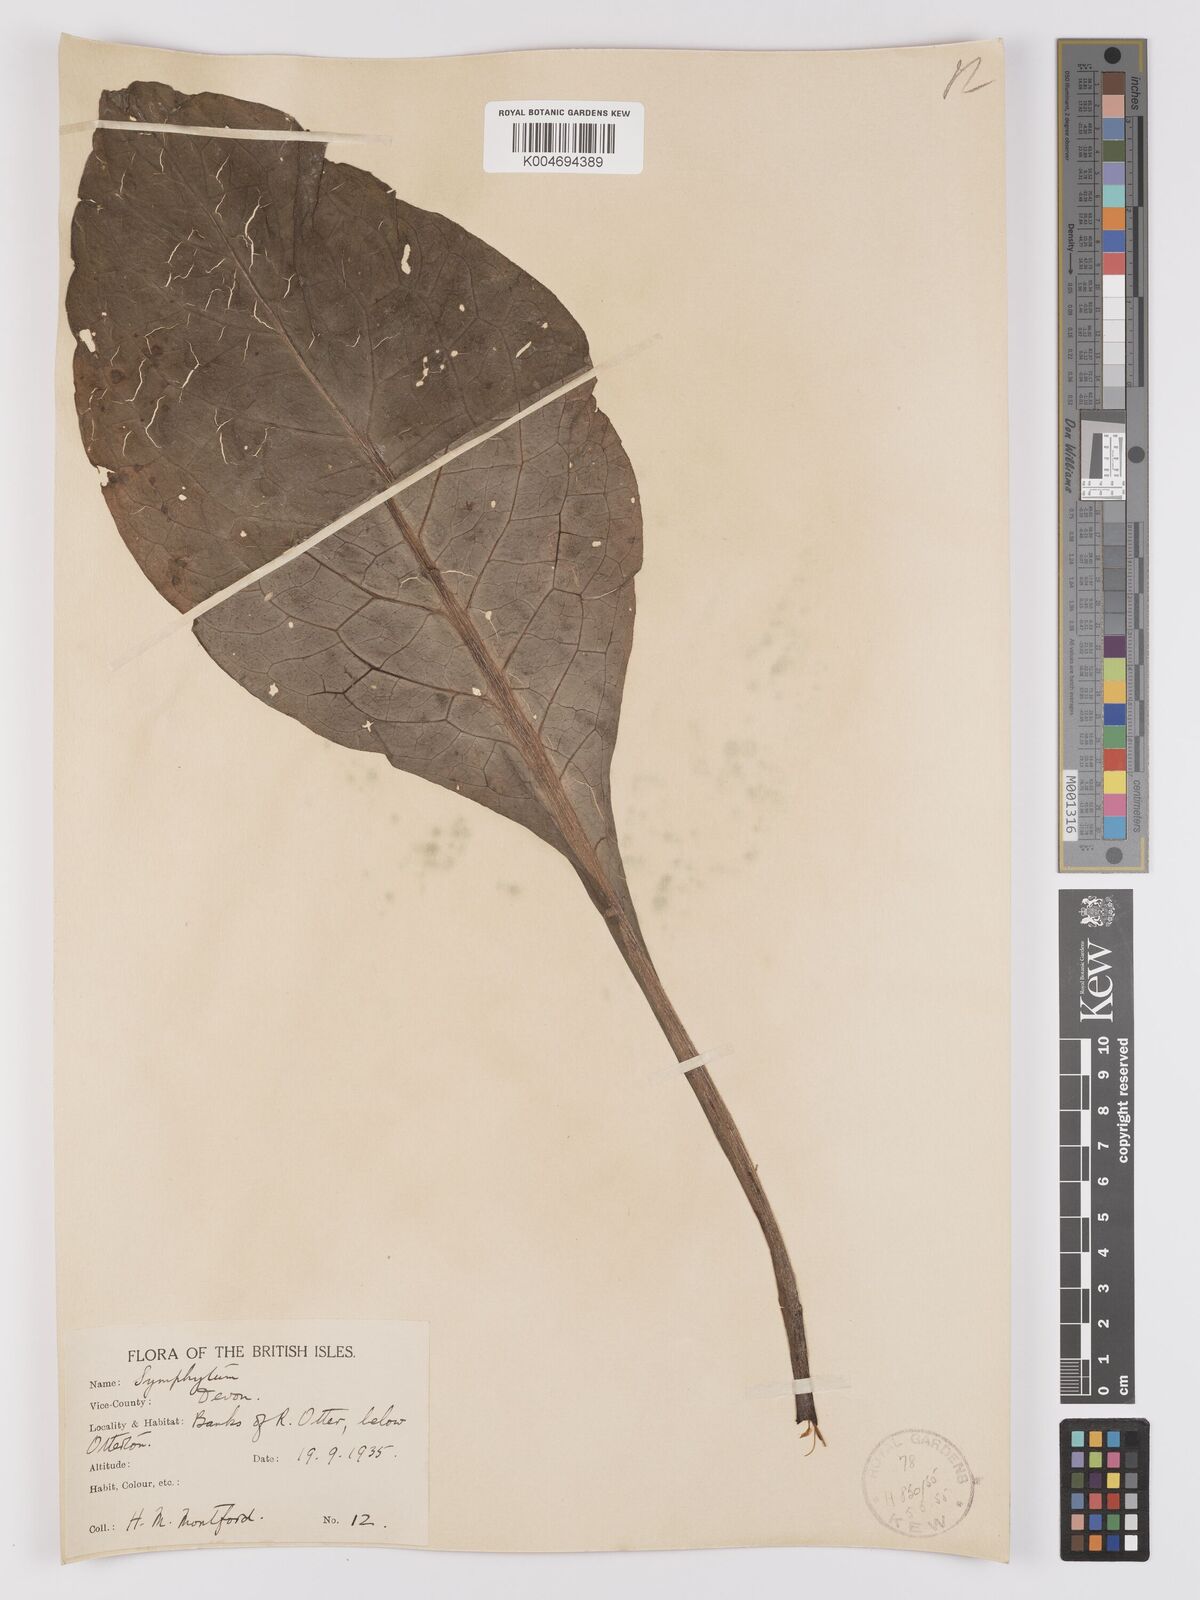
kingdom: Plantae
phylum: Tracheophyta
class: Magnoliopsida
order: Boraginales
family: Boraginaceae
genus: Symphytum
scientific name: Symphytum officinale
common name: Common comfrey
